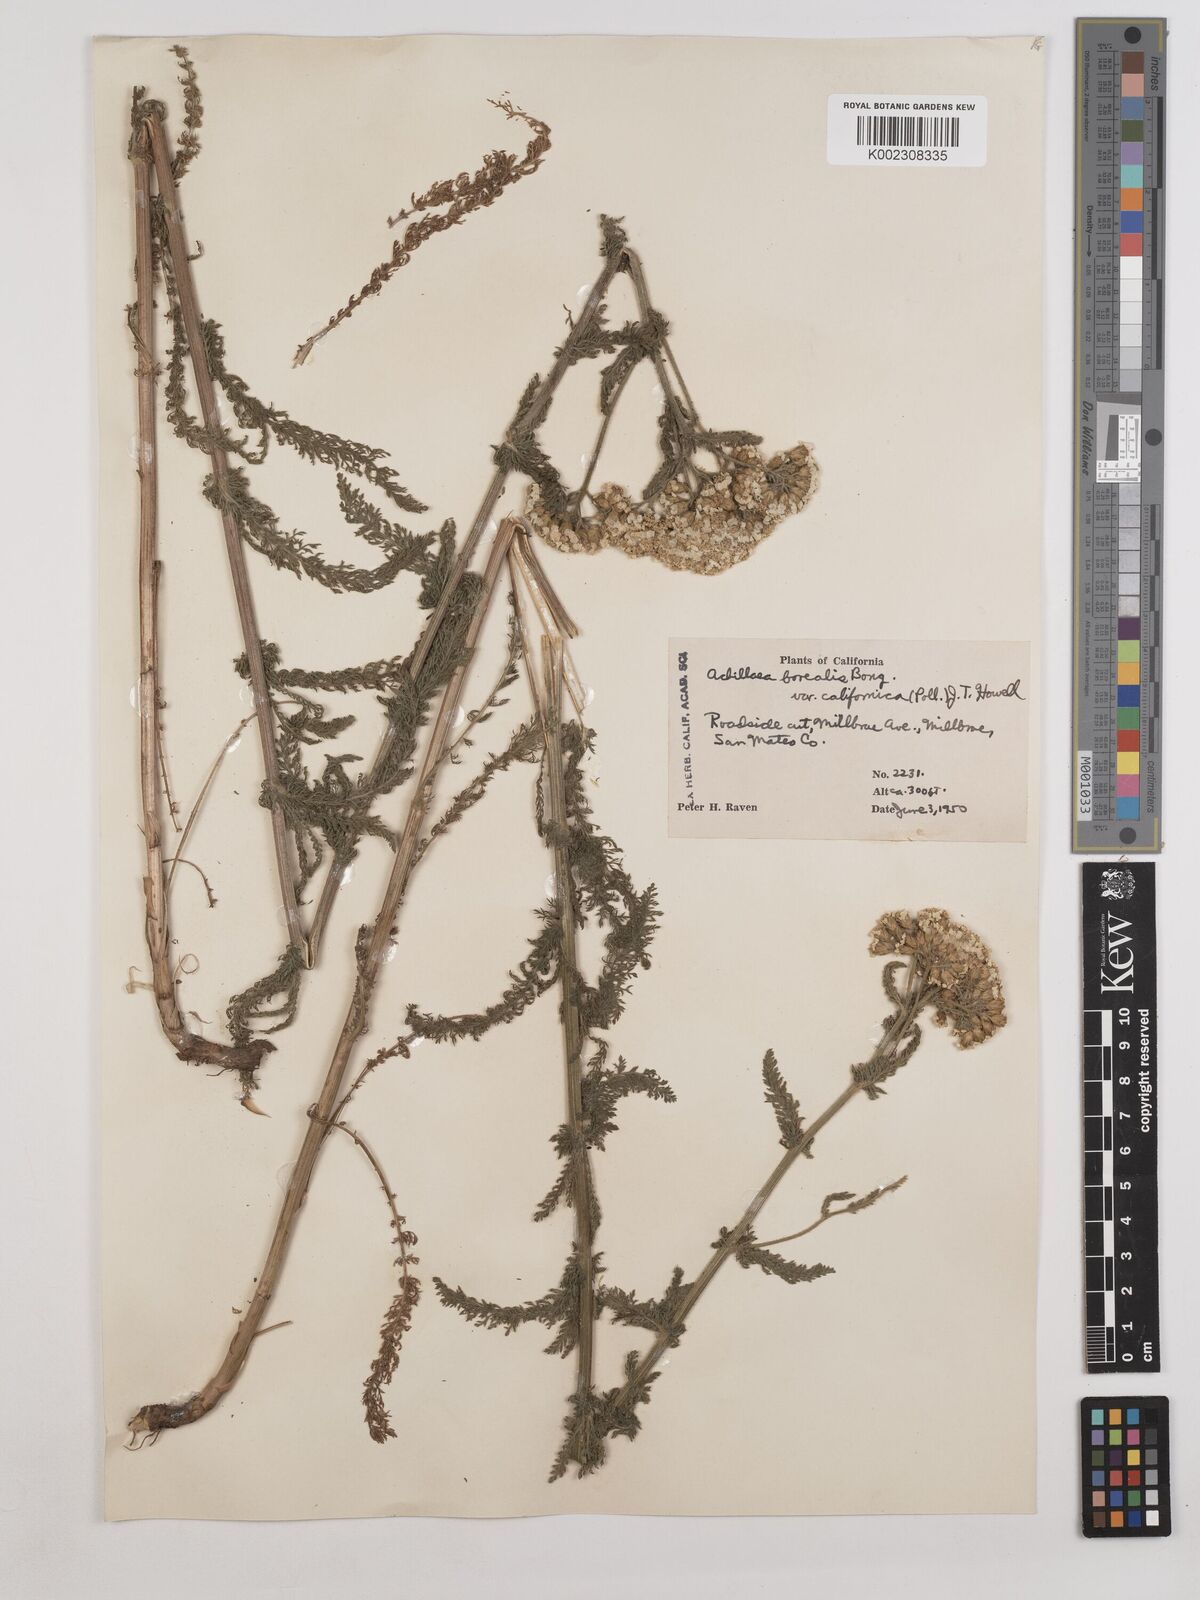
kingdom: Plantae
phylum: Tracheophyta
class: Magnoliopsida
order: Asterales
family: Asteraceae
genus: Achillea
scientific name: Achillea millefolium
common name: Yarrow
